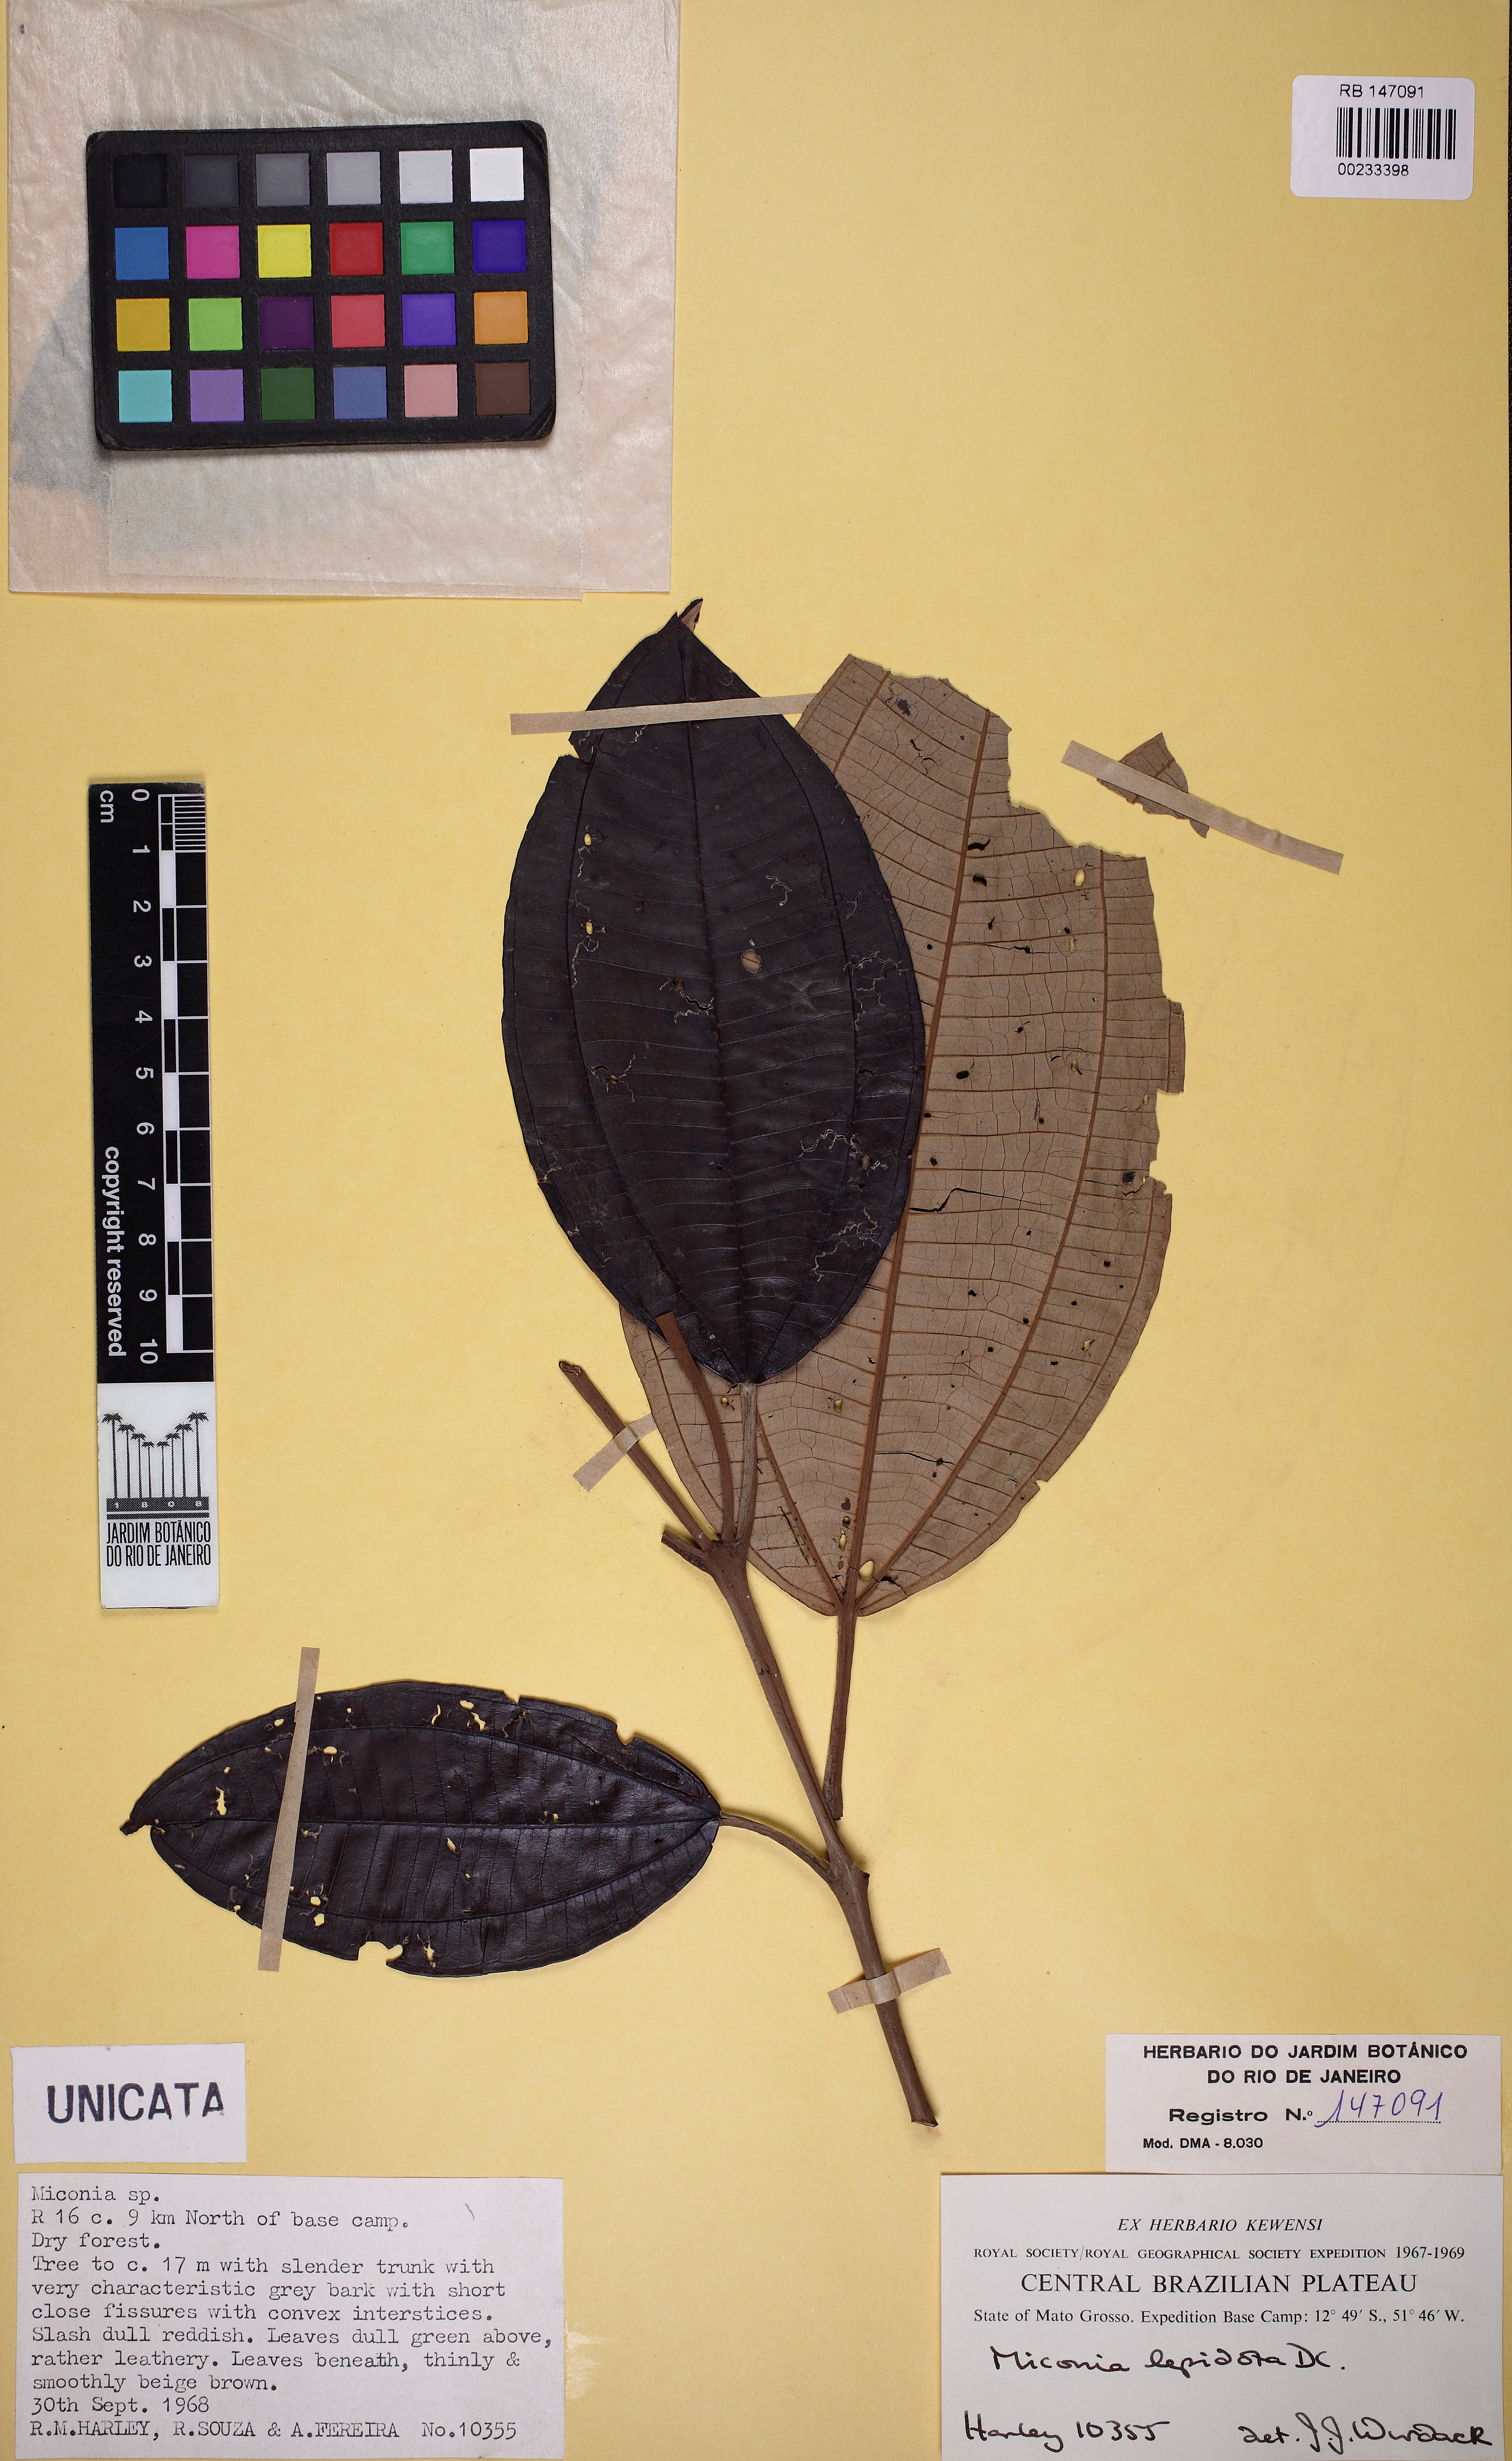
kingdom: Plantae
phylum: Tracheophyta
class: Magnoliopsida
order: Myrtales
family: Melastomataceae
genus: Miconia
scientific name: Miconia lepidota
